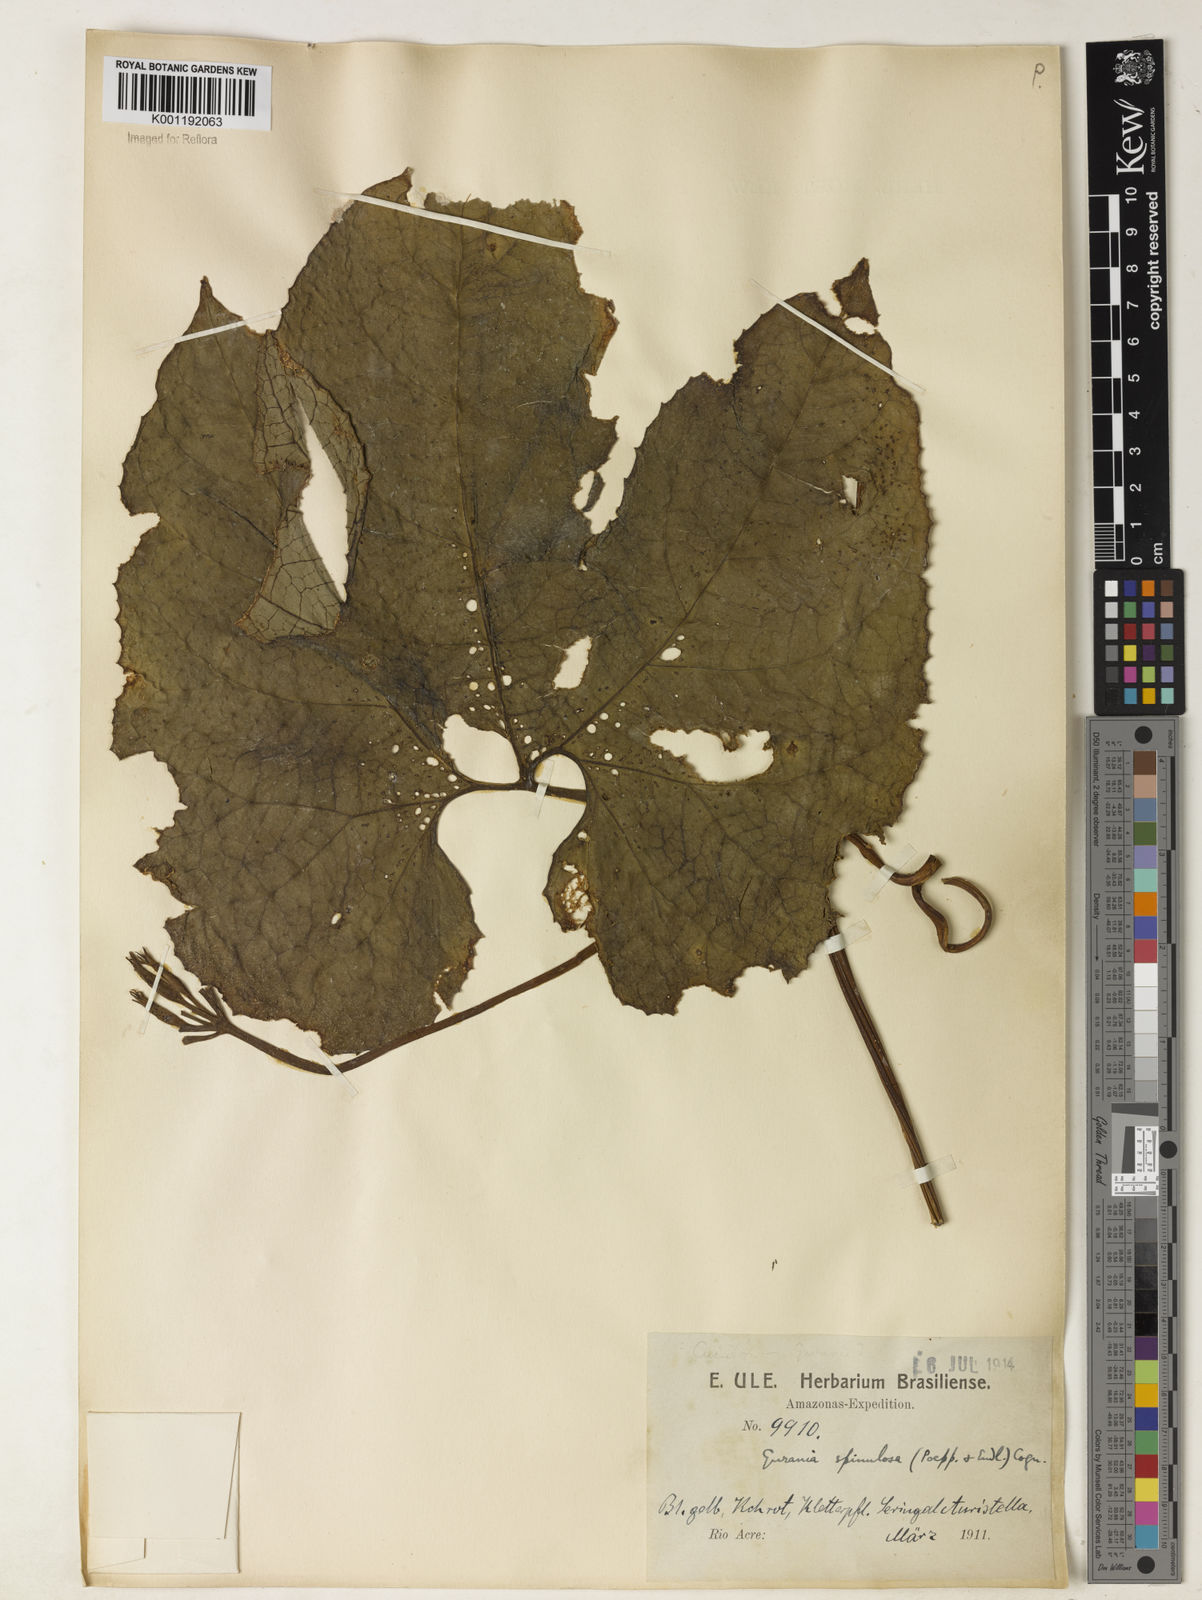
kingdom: Plantae
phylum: Tracheophyta
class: Magnoliopsida
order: Cucurbitales
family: Cucurbitaceae
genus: Gurania
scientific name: Gurania lobata
